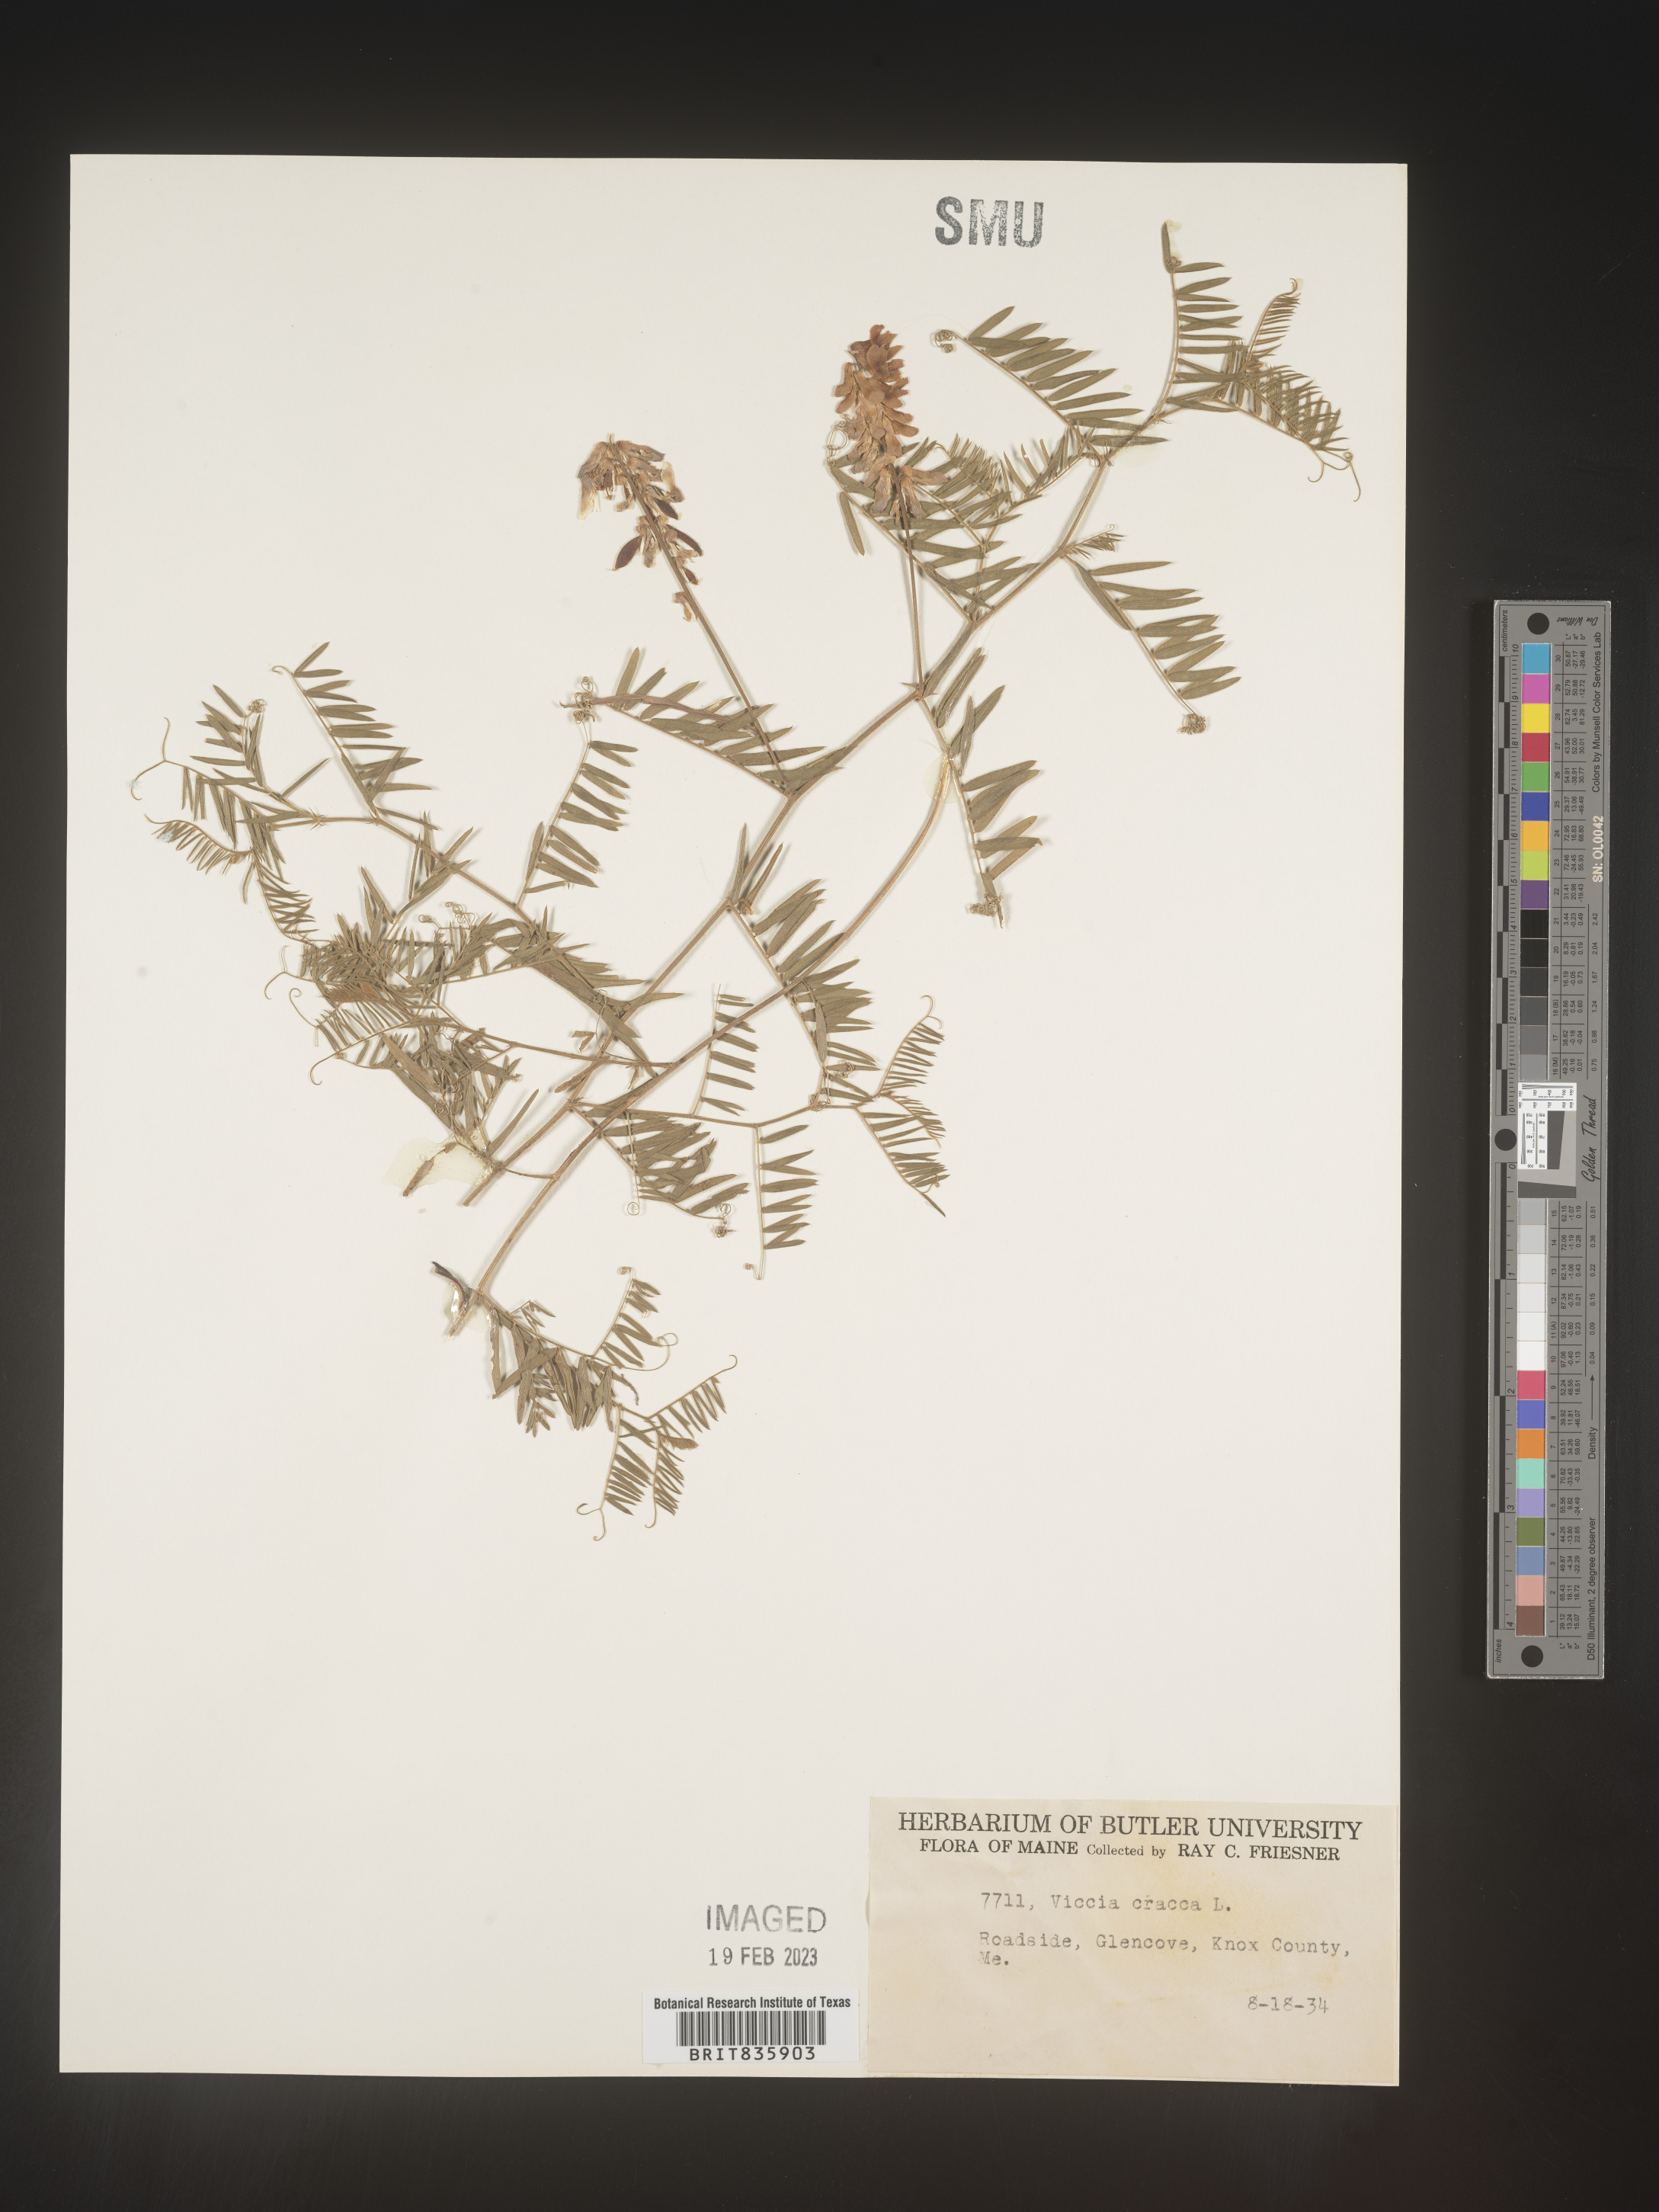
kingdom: Plantae
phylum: Tracheophyta
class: Magnoliopsida
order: Fabales
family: Fabaceae
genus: Vicia
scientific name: Vicia cracca
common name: Bird vetch
